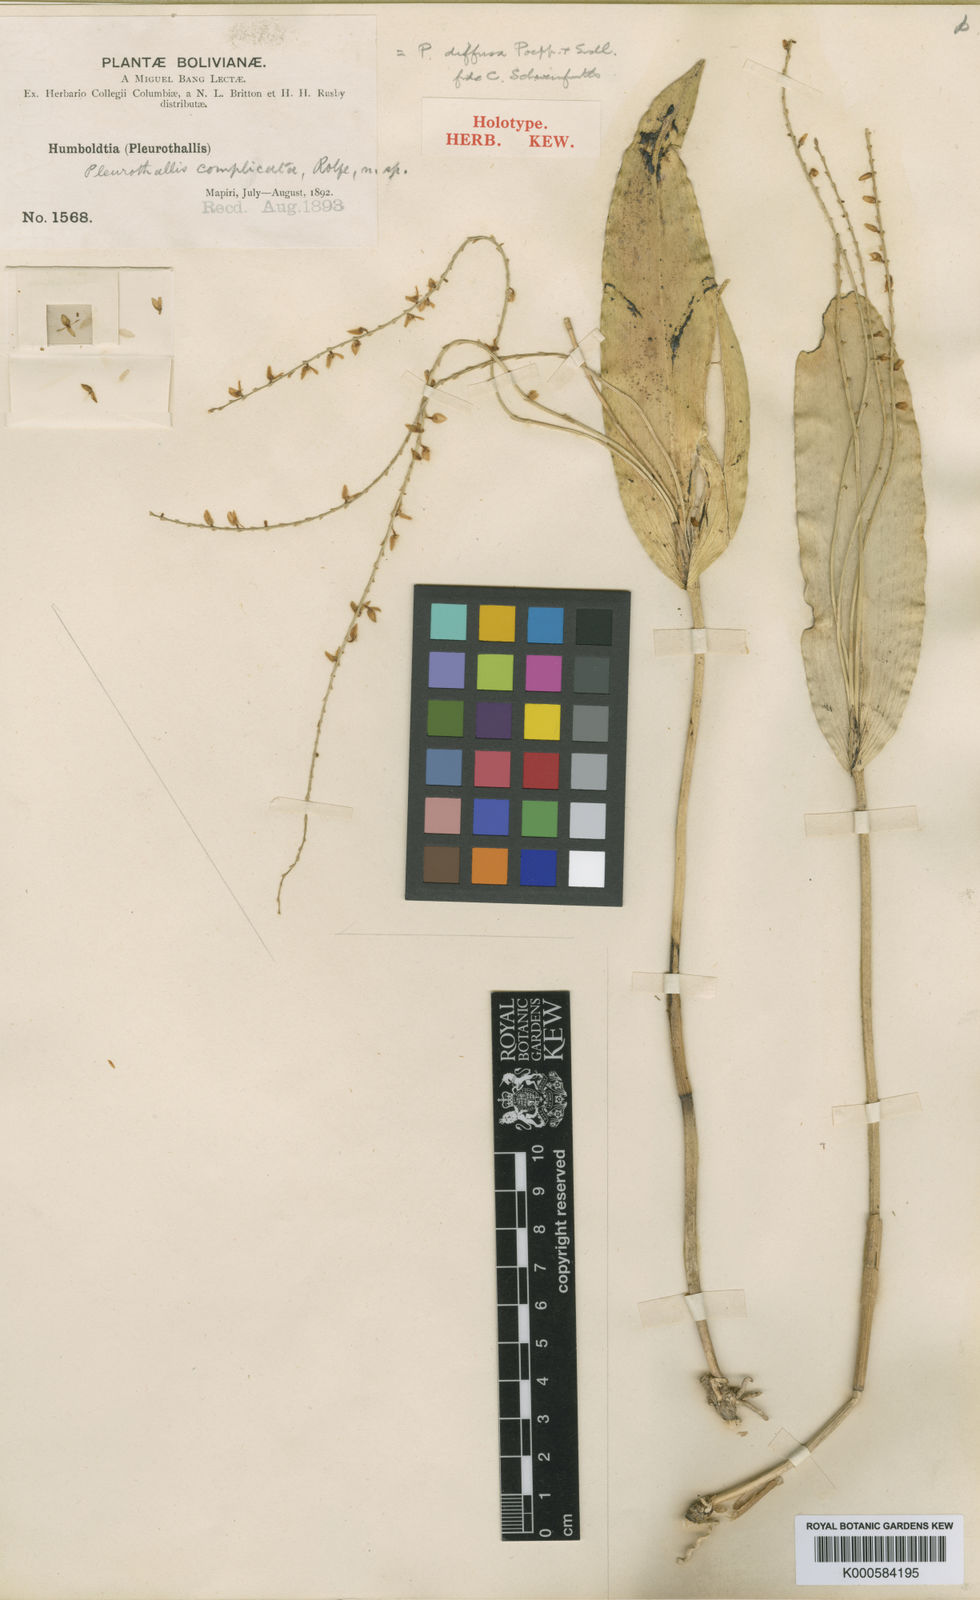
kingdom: Plantae
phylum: Tracheophyta
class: Liliopsida
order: Asparagales
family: Orchidaceae
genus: Pleurothallis
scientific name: Pleurothallis revoluta
